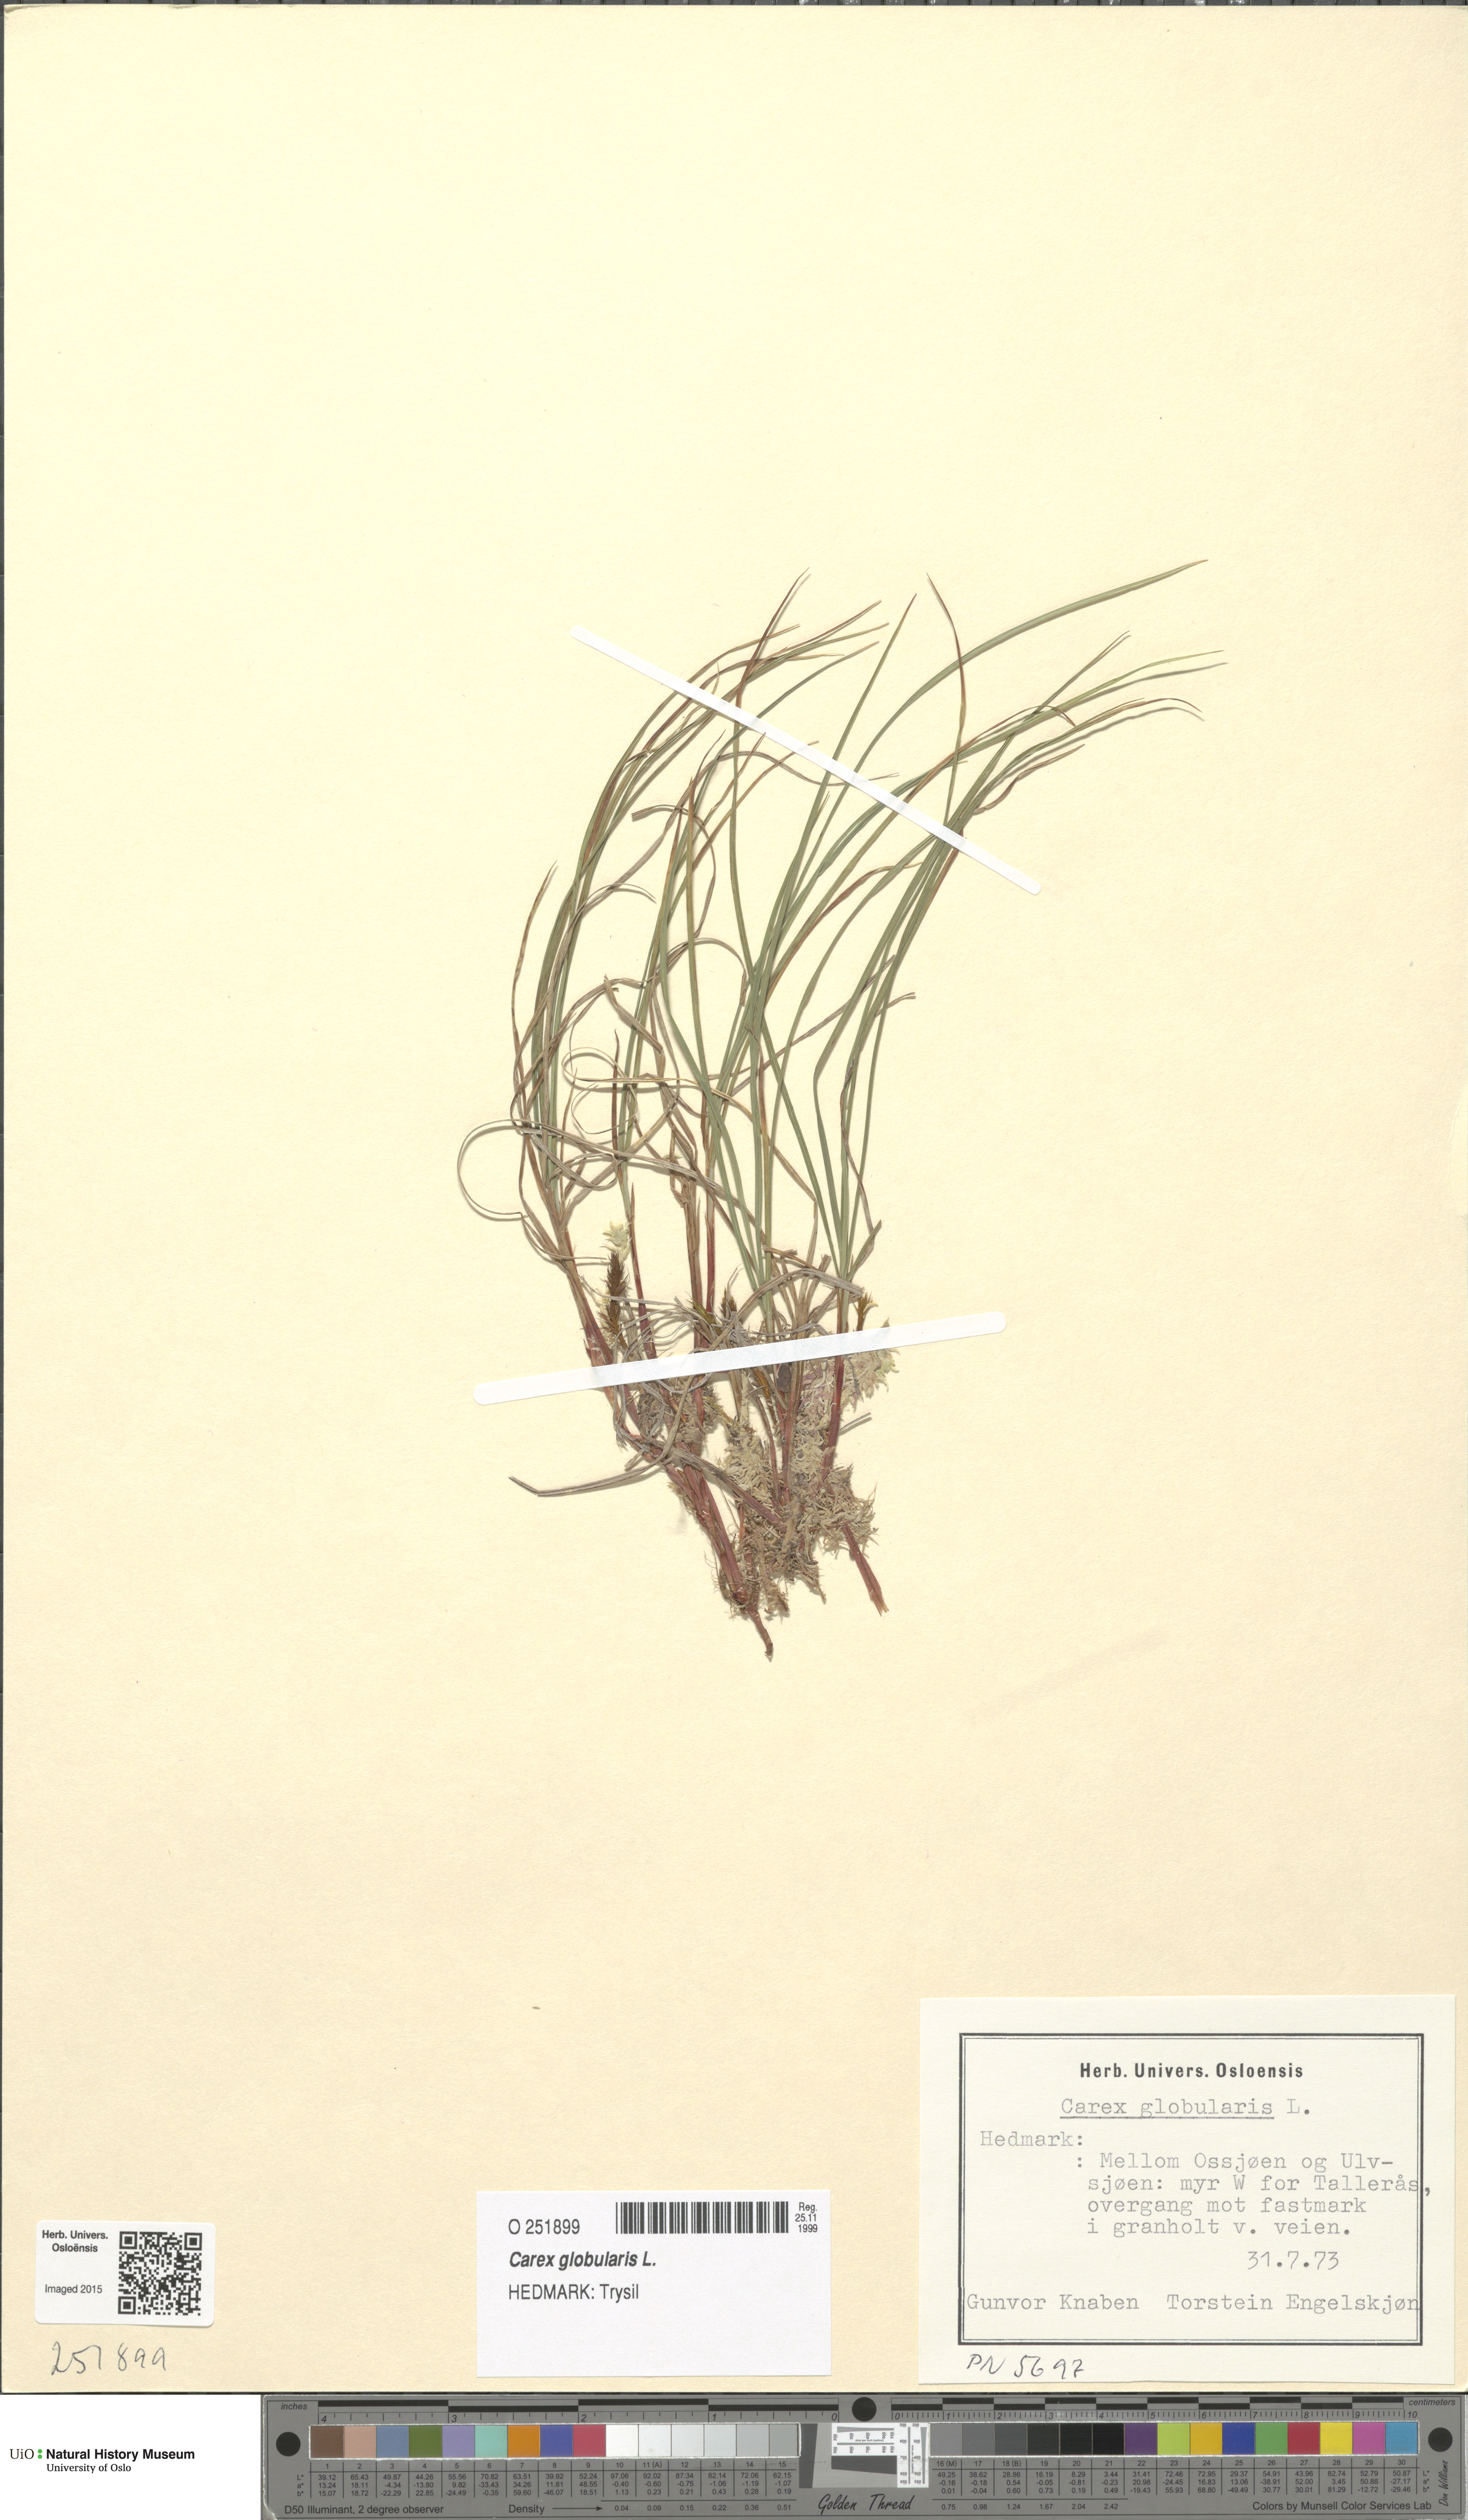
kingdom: Plantae
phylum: Tracheophyta
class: Liliopsida
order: Poales
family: Cyperaceae
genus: Carex
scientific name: Carex globularis
